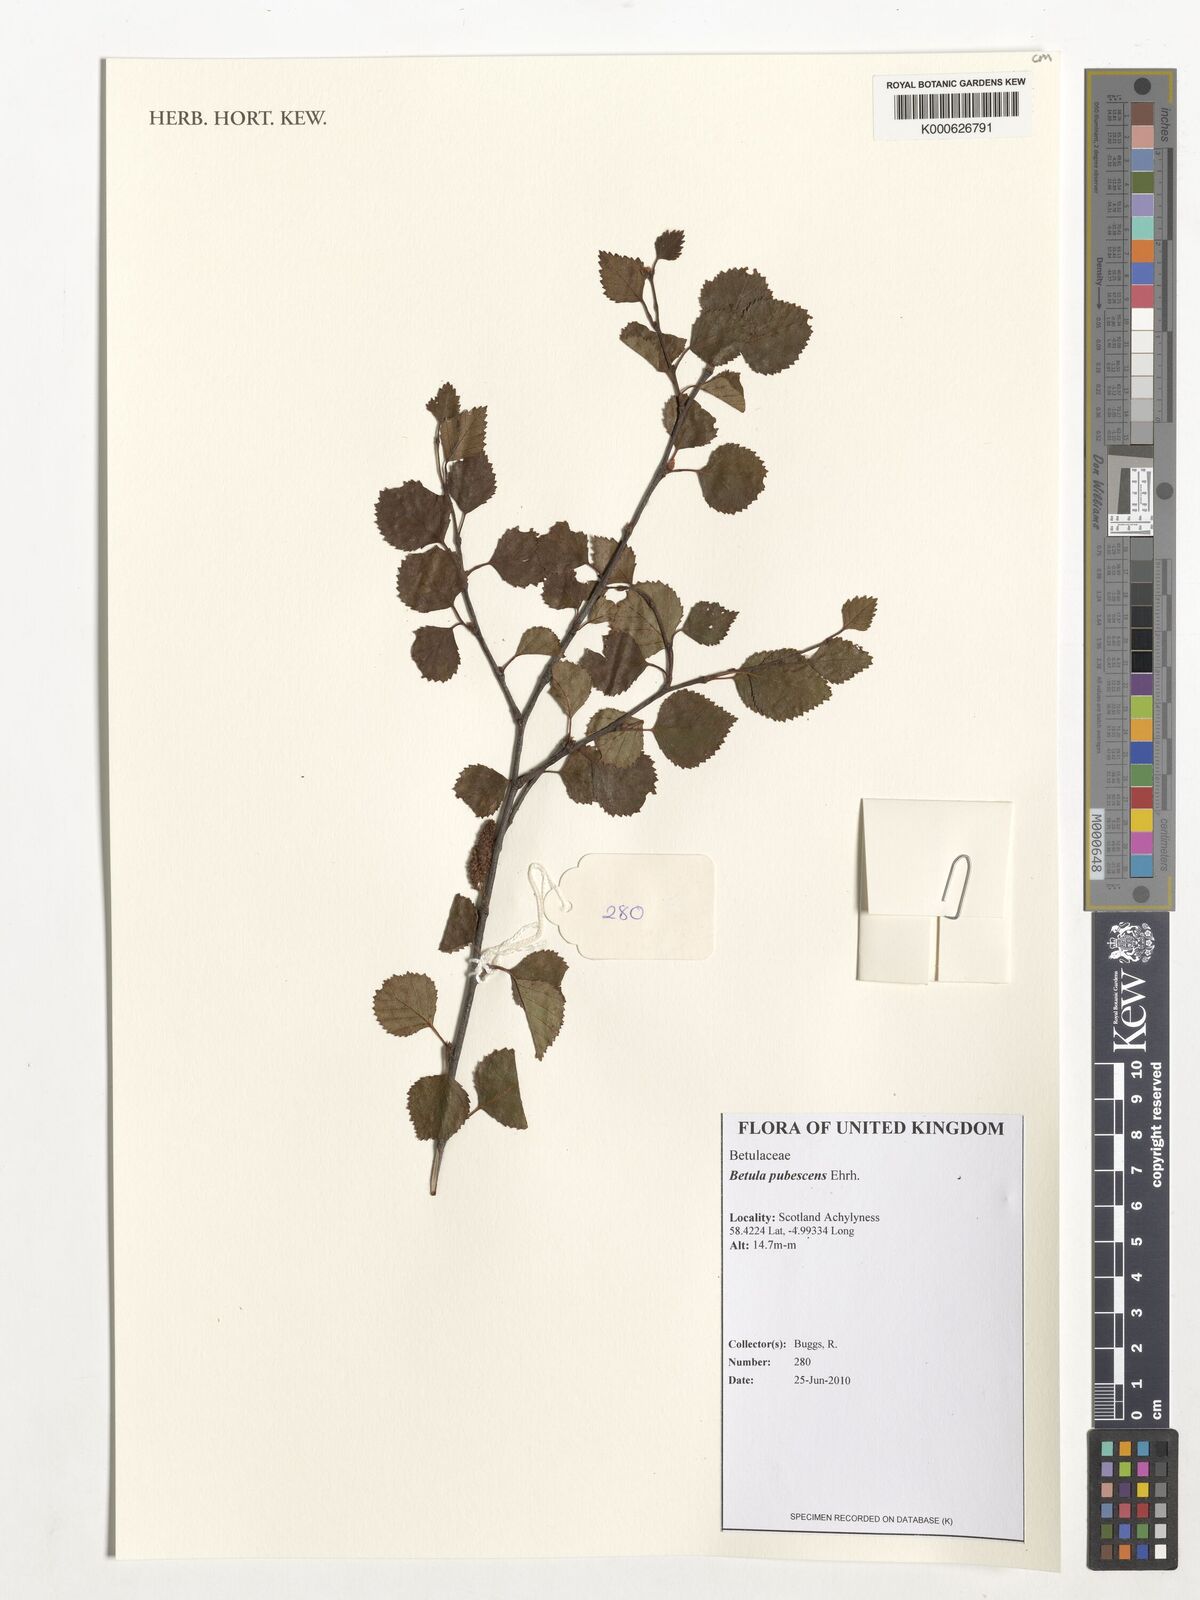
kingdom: Plantae
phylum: Tracheophyta
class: Magnoliopsida
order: Fagales
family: Betulaceae
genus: Betula
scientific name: Betula pubescens
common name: Downy birch
